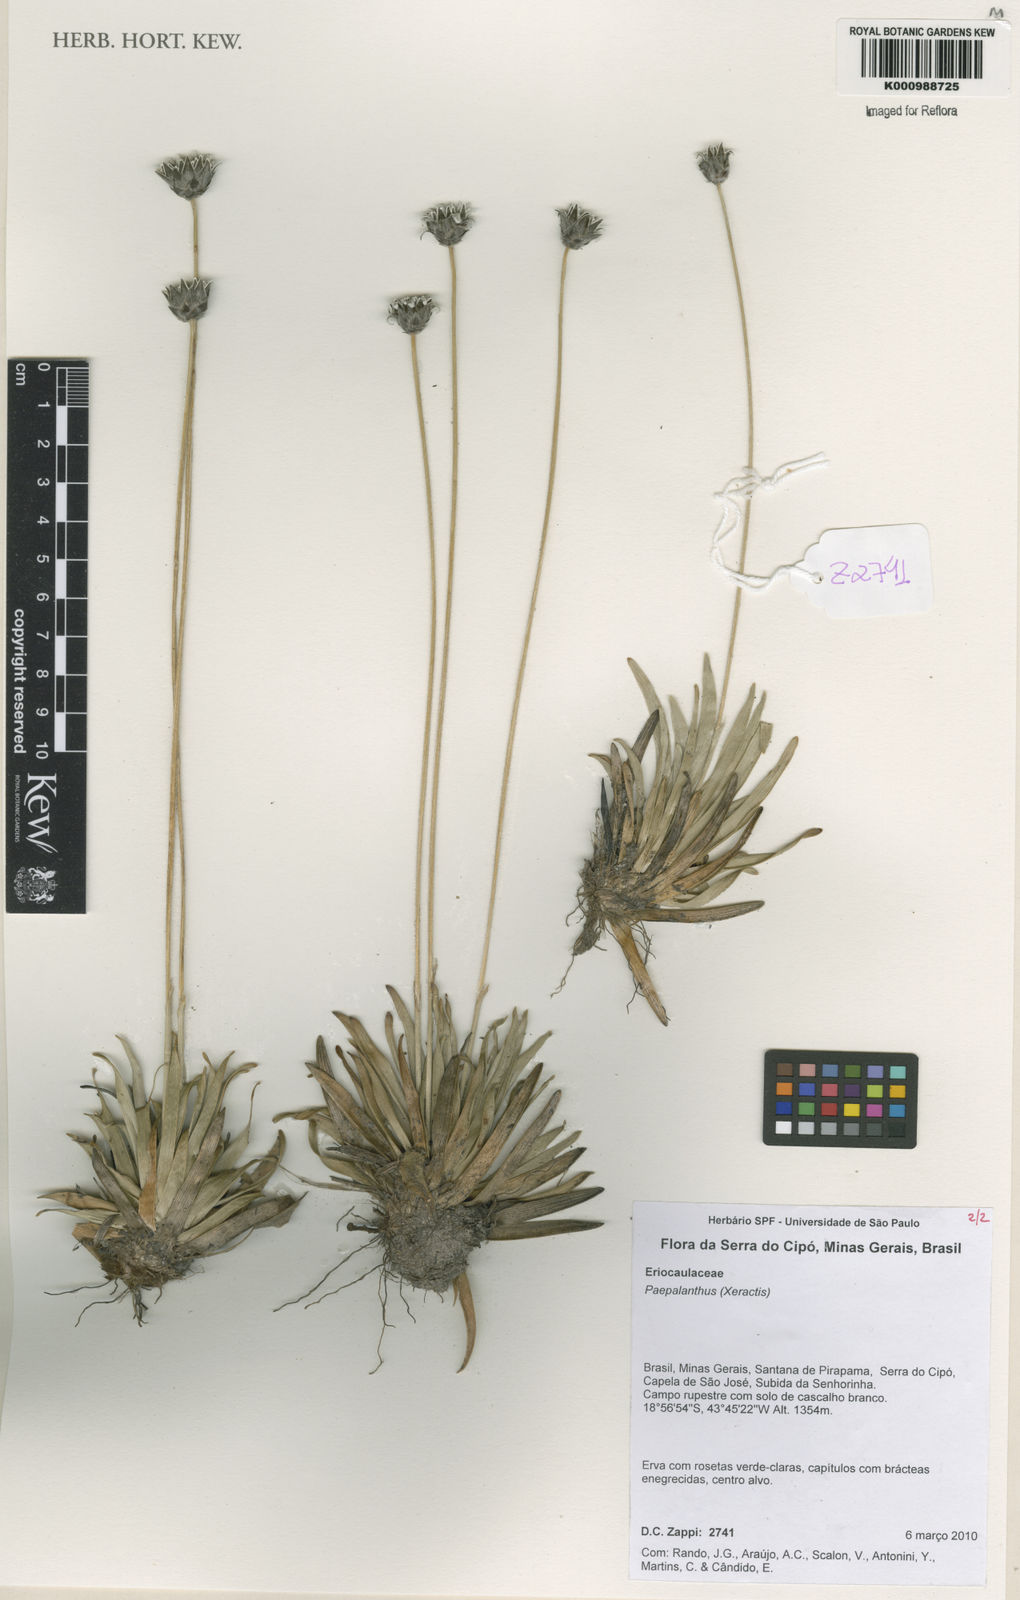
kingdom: Plantae
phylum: Tracheophyta
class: Liliopsida
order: Poales
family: Eriocaulaceae
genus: Paepalanthus
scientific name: Paepalanthus comans
